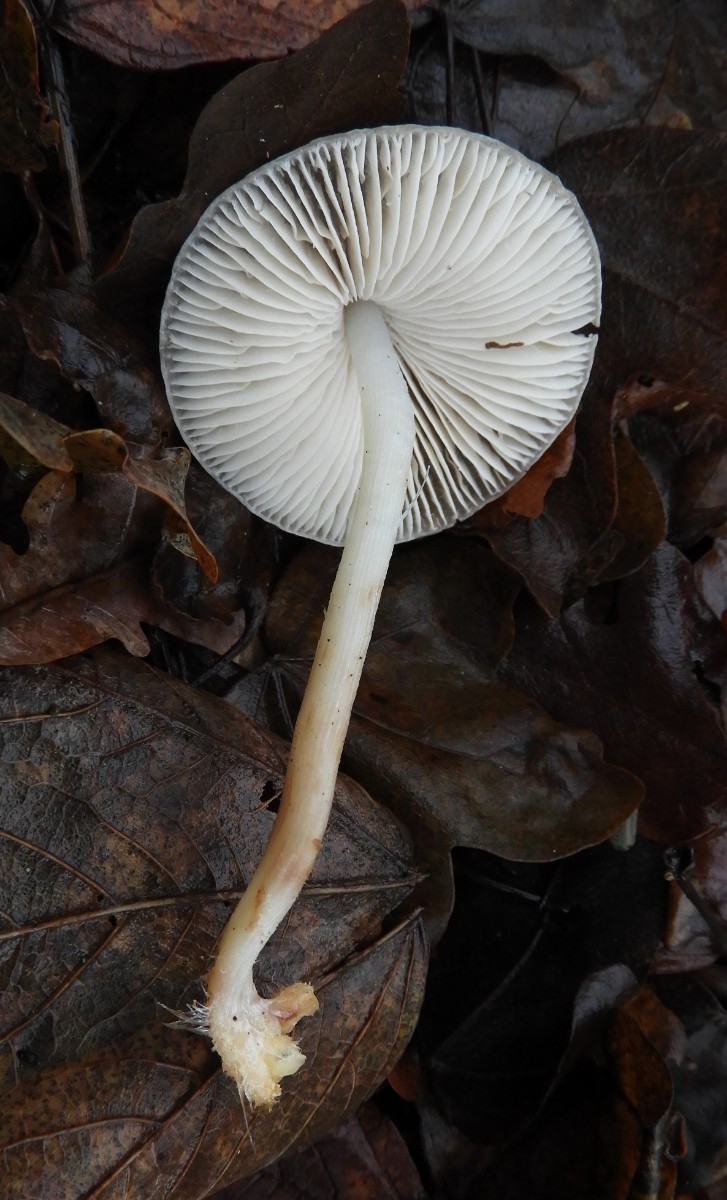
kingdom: Fungi
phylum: Basidiomycota
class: Agaricomycetes
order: Agaricales
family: Mycenaceae
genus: Mycena
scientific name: Mycena galericulata
